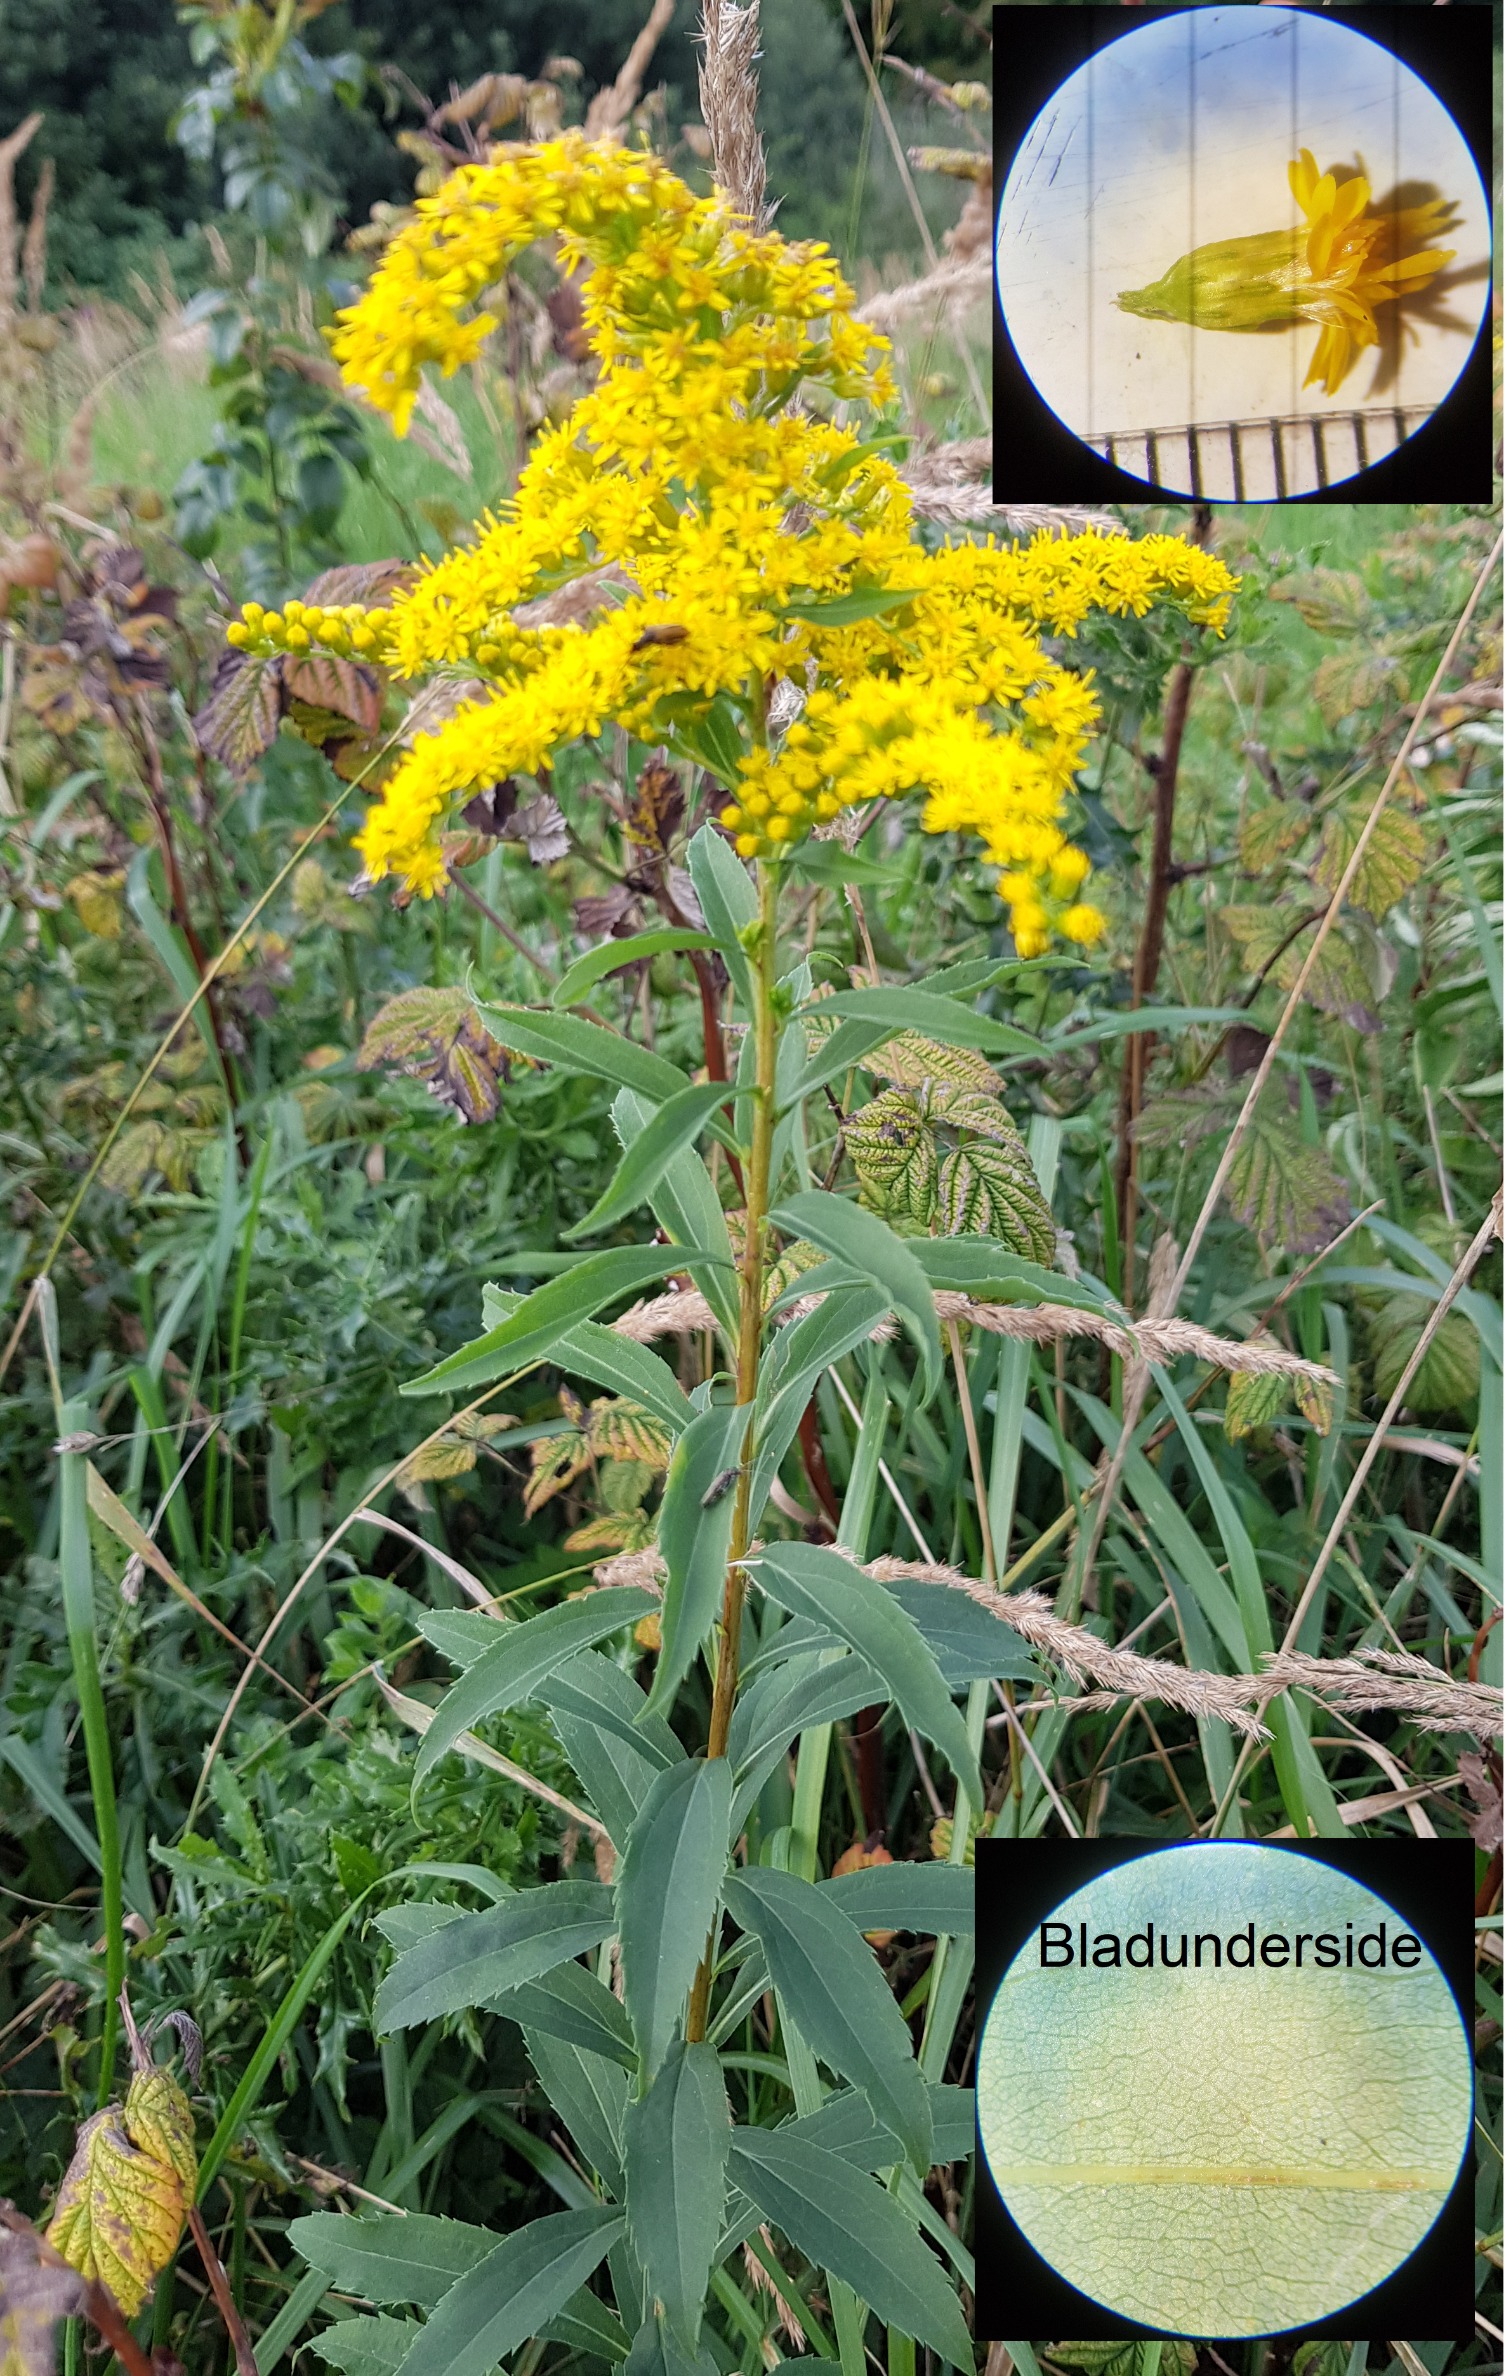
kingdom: Plantae
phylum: Tracheophyta
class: Magnoliopsida
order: Asterales
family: Asteraceae
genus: Solidago
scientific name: Solidago gigantea
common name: Sildig gyldenris
